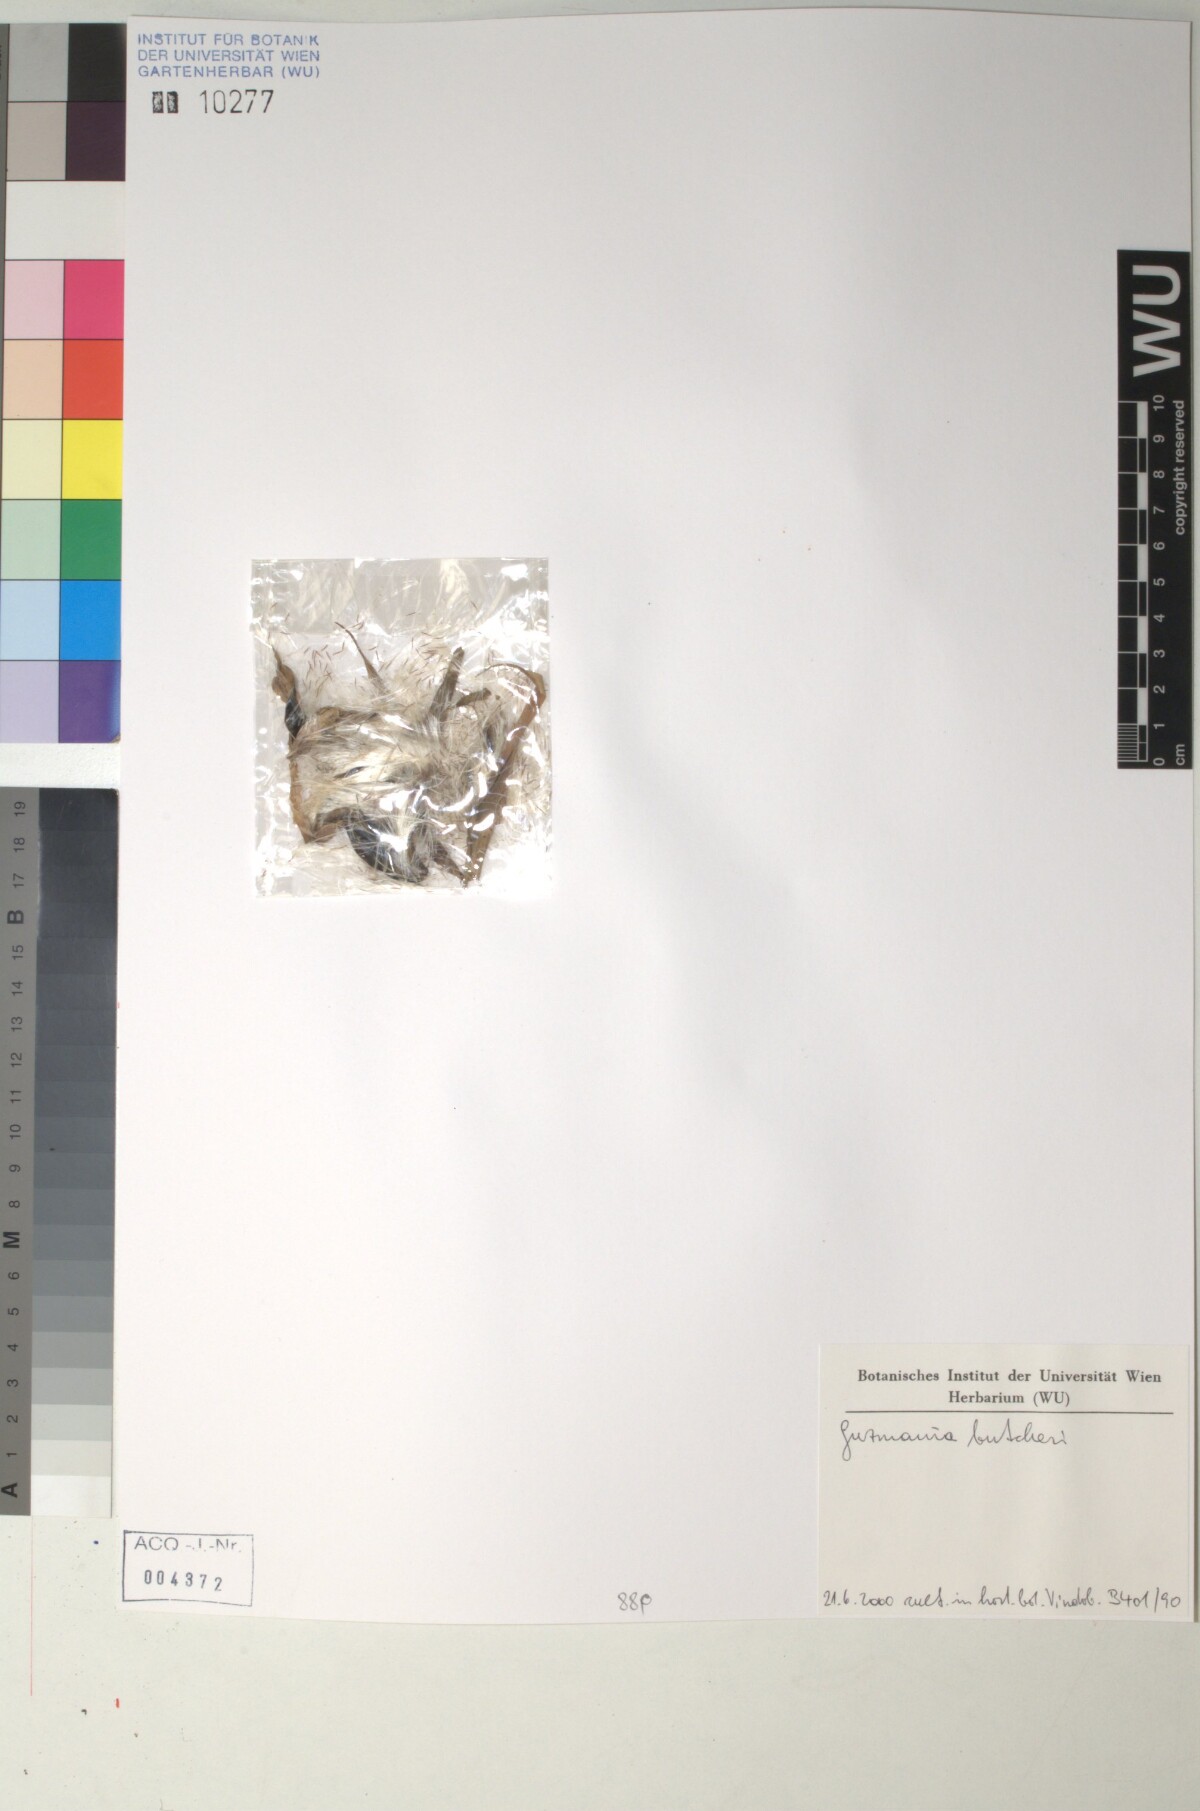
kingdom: Plantae
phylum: Tracheophyta
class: Liliopsida
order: Poales
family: Bromeliaceae
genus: Guzmania
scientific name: Guzmania butcheri
